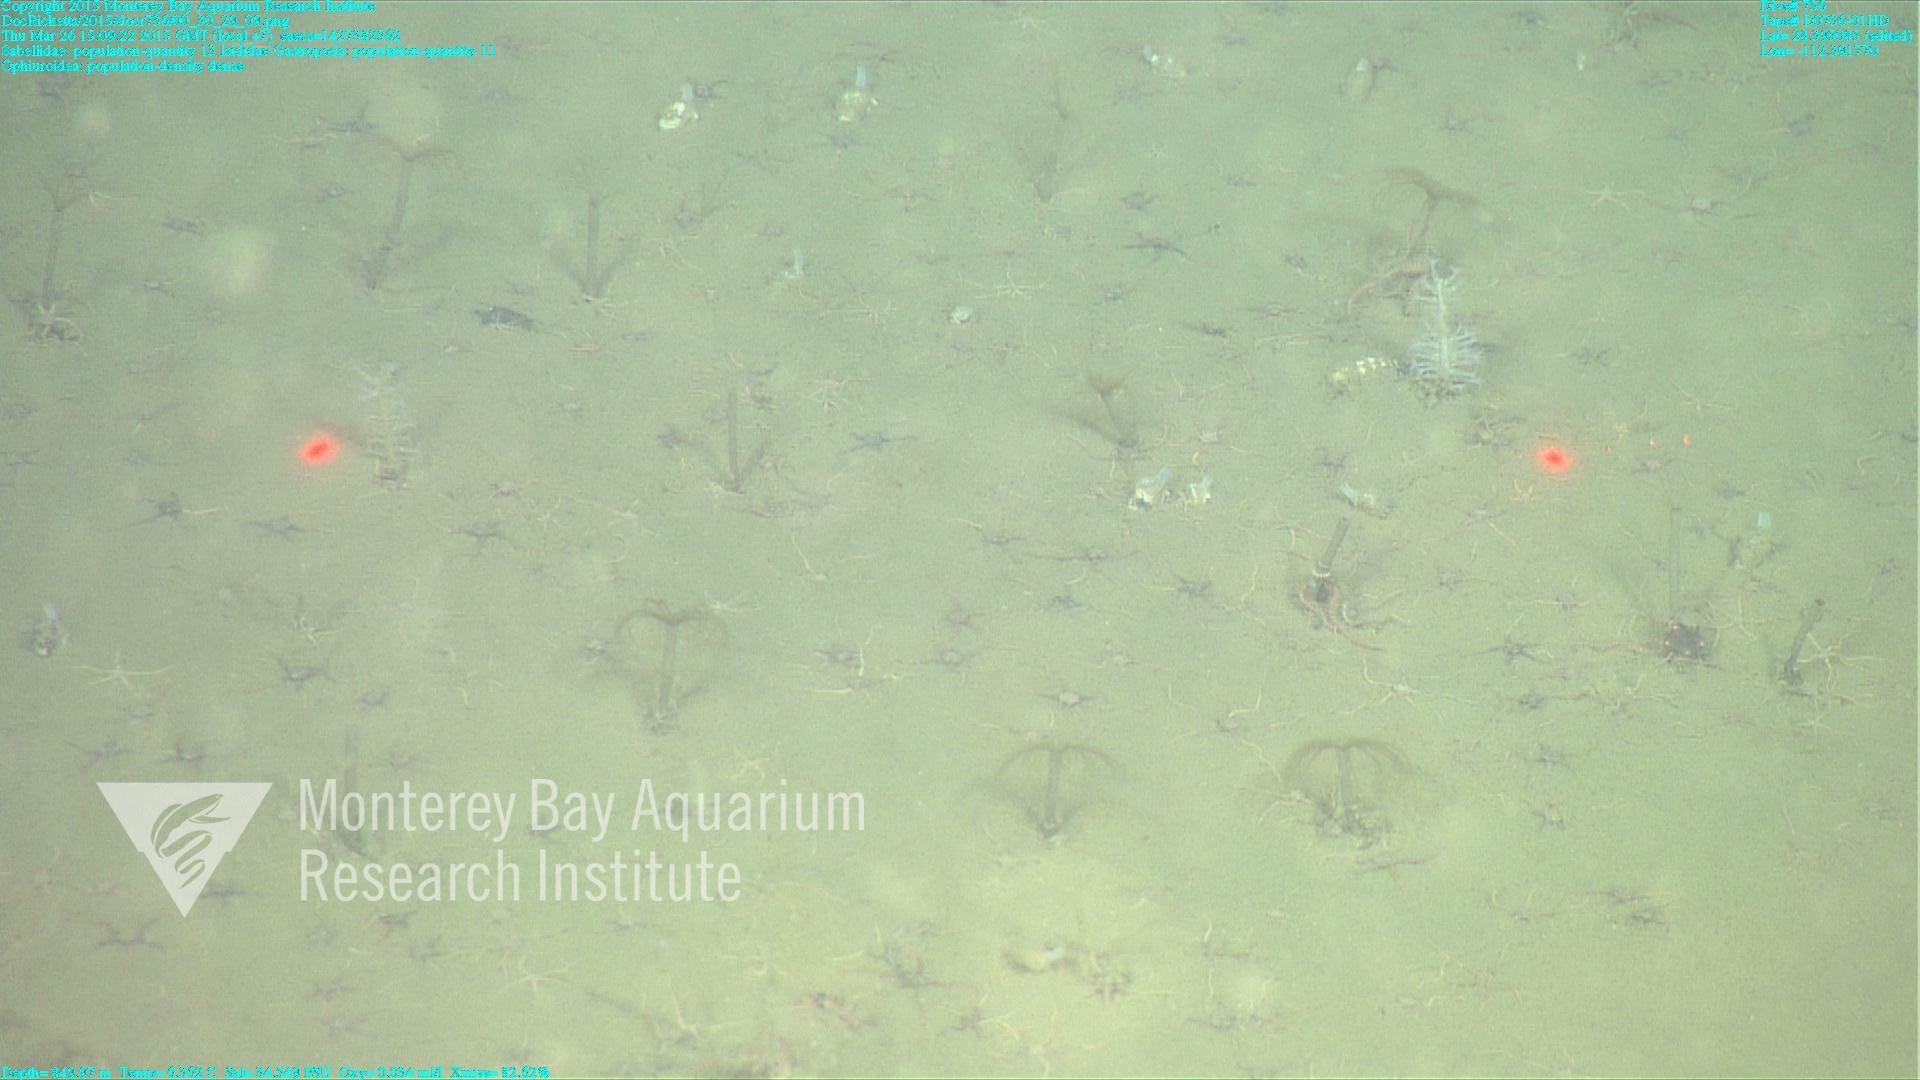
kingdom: Animalia
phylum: Cnidaria
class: Anthozoa
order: Scleralcyonacea
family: Keratoisididae
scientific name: Keratoisididae
